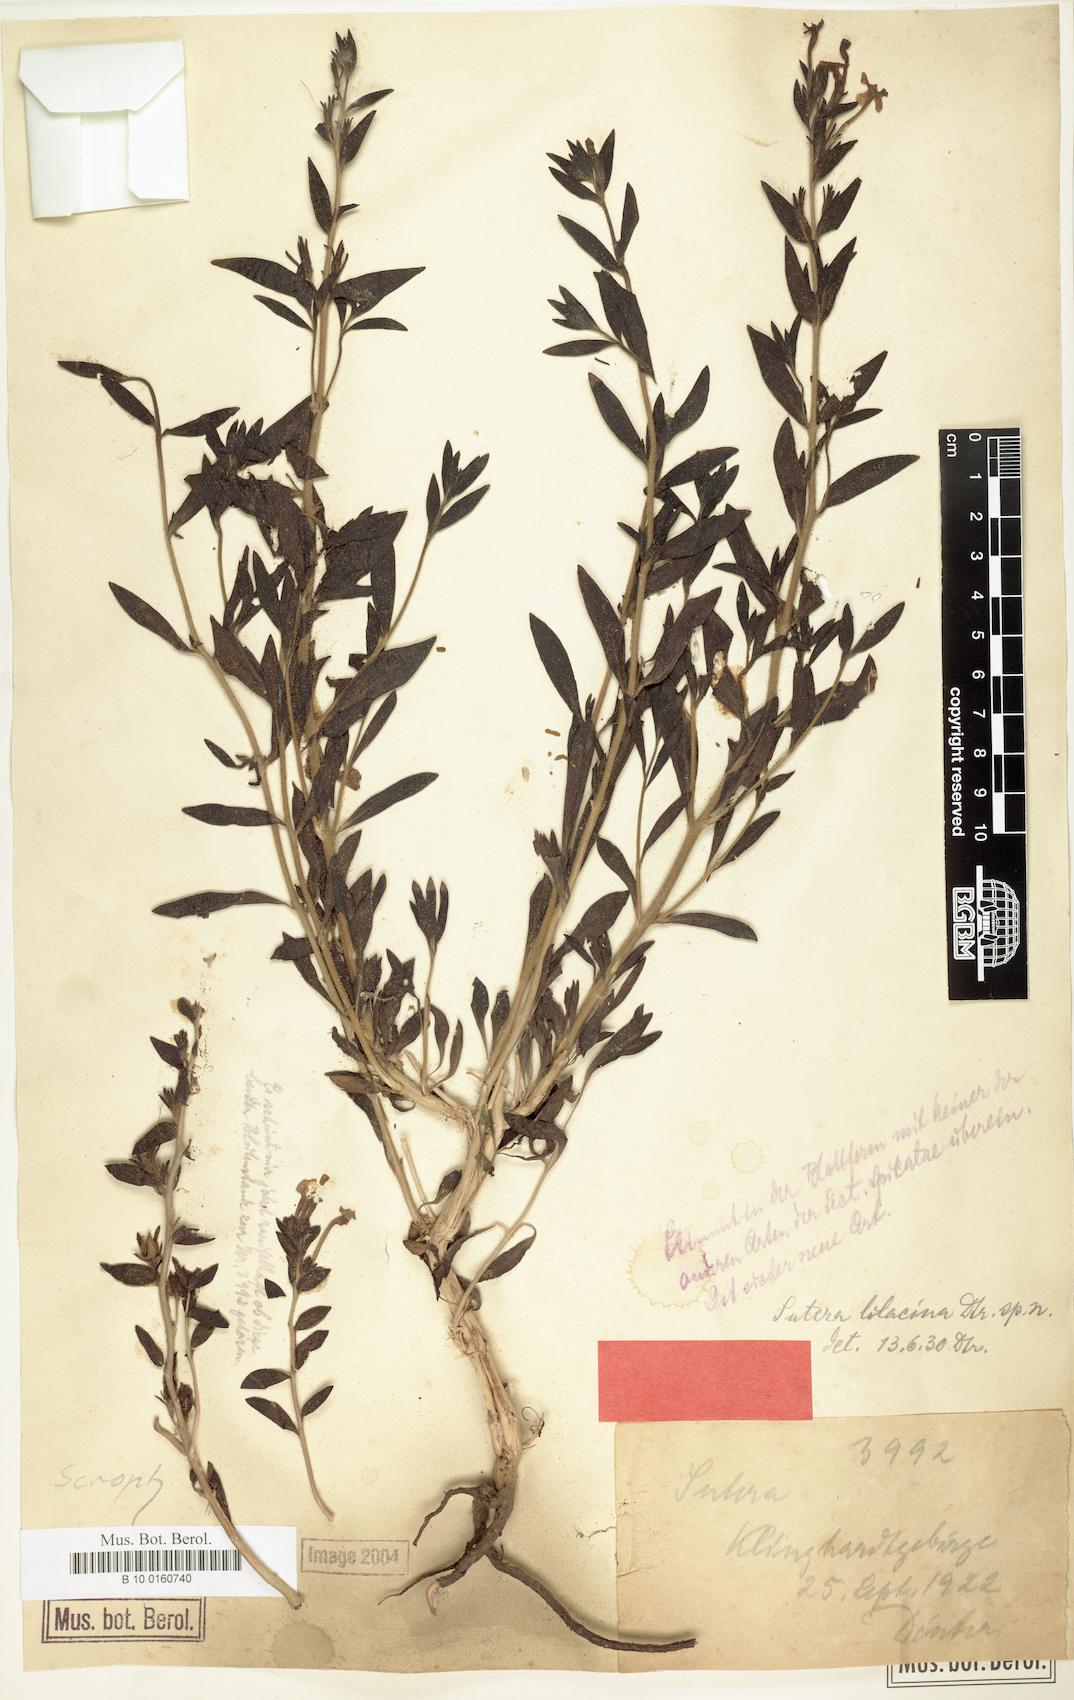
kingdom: Plantae
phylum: Tracheophyta
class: Magnoliopsida
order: Lamiales
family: Scrophulariaceae
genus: Jamesbrittenia
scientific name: Jamesbrittenia fruticosa
